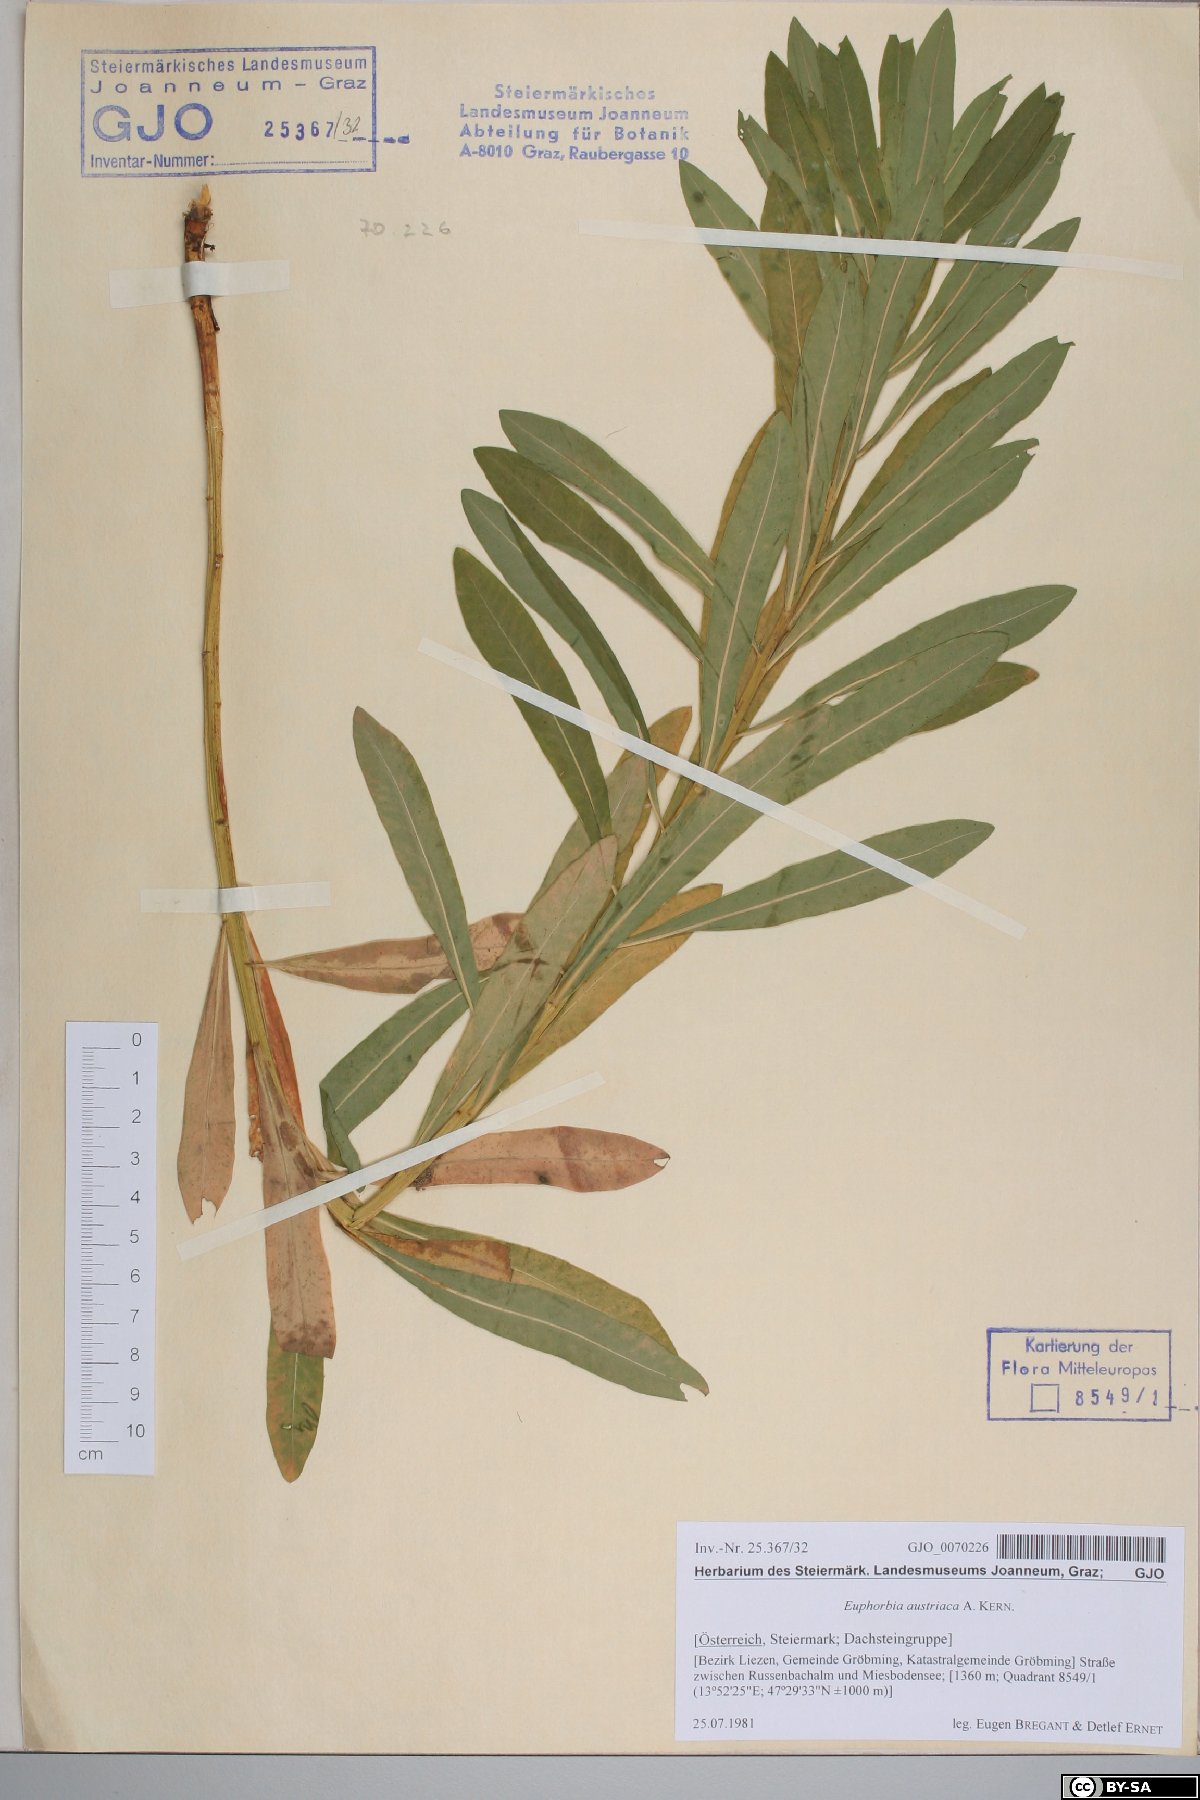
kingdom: Plantae
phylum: Tracheophyta
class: Magnoliopsida
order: Malpighiales
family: Euphorbiaceae
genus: Euphorbia
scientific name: Euphorbia austriaca
